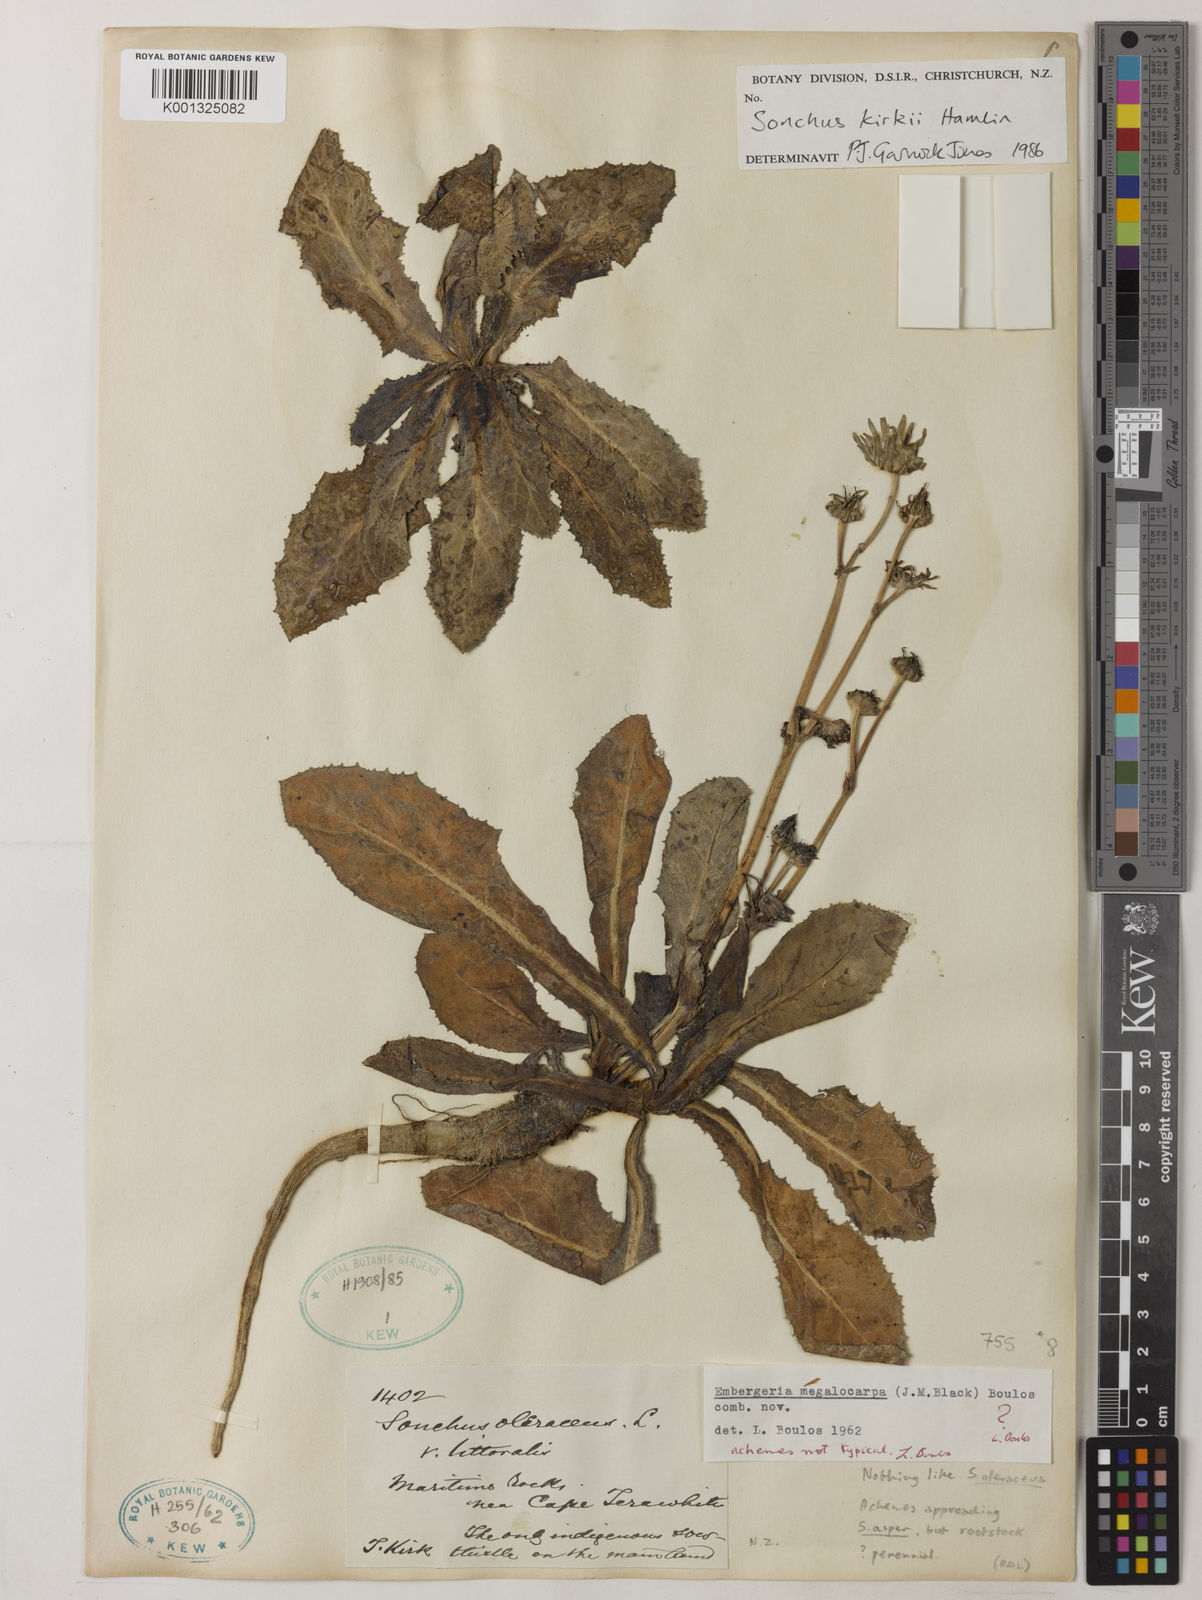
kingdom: Plantae
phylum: Tracheophyta
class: Magnoliopsida
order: Asterales
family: Asteraceae
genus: Sonchus
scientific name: Sonchus oleraceus
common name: Common sowthistle
